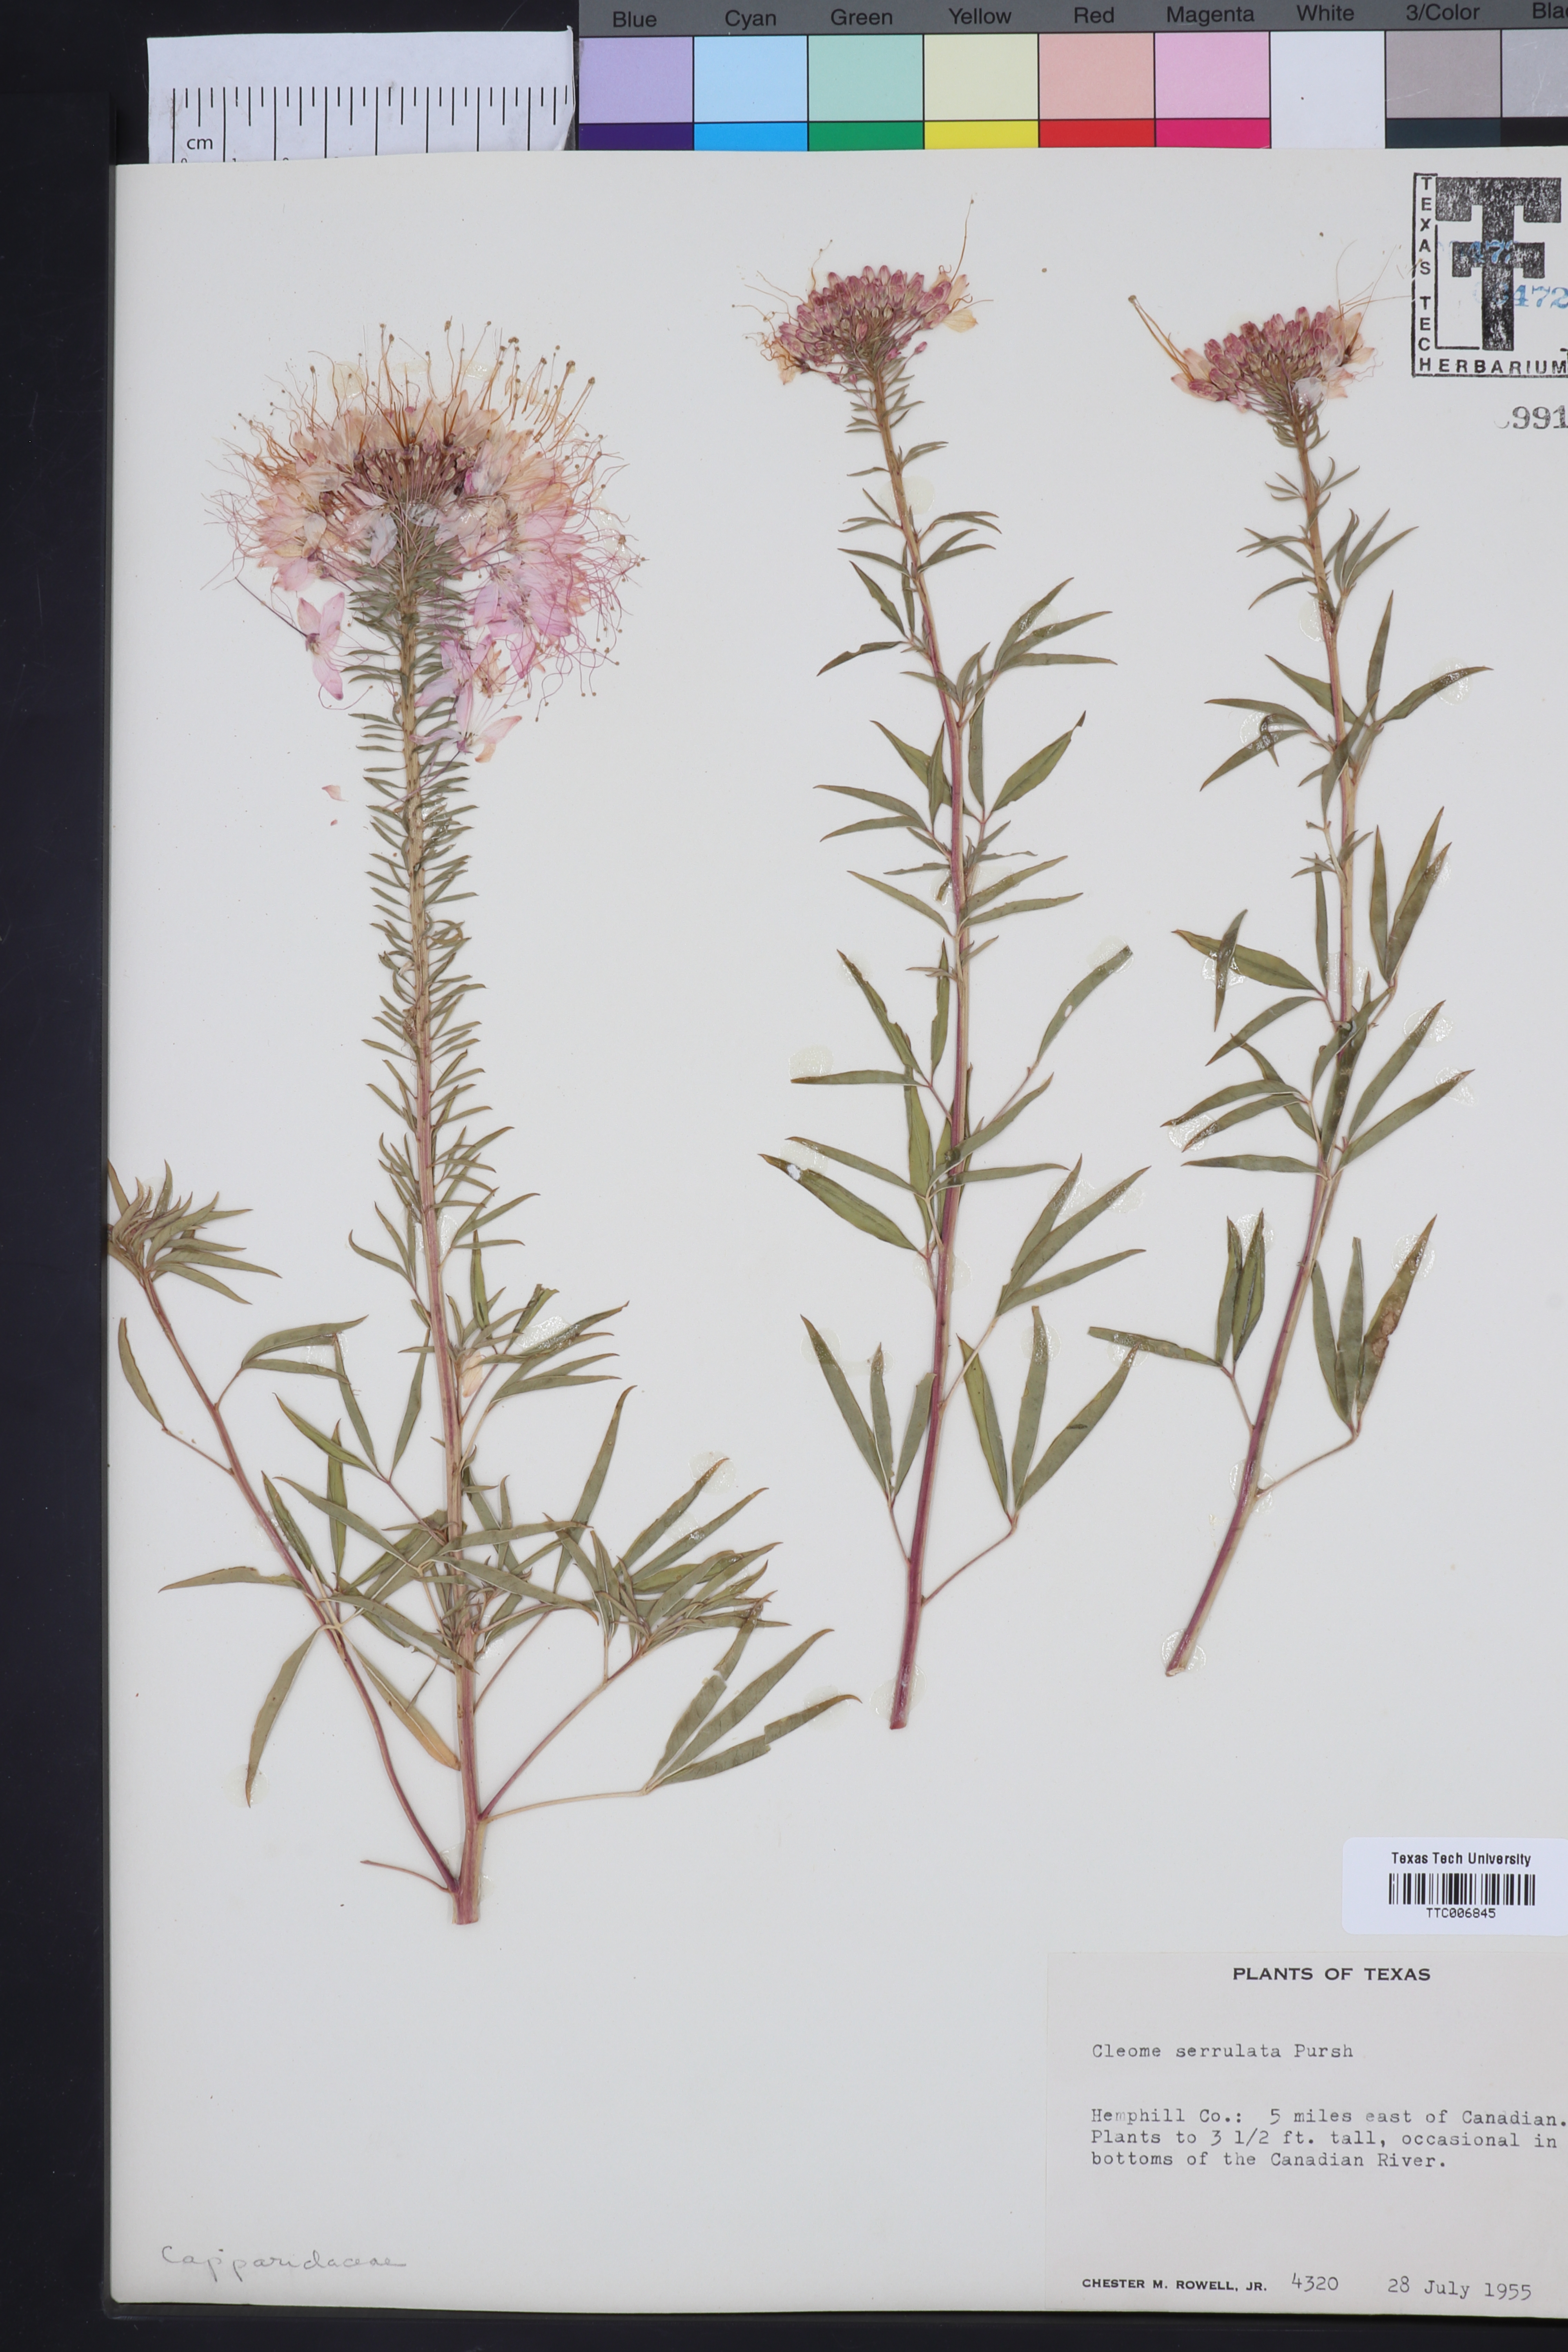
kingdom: Plantae
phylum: Tracheophyta
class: Magnoliopsida
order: Brassicales
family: Cleomaceae
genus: Cleomella
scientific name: Cleomella serrulata
